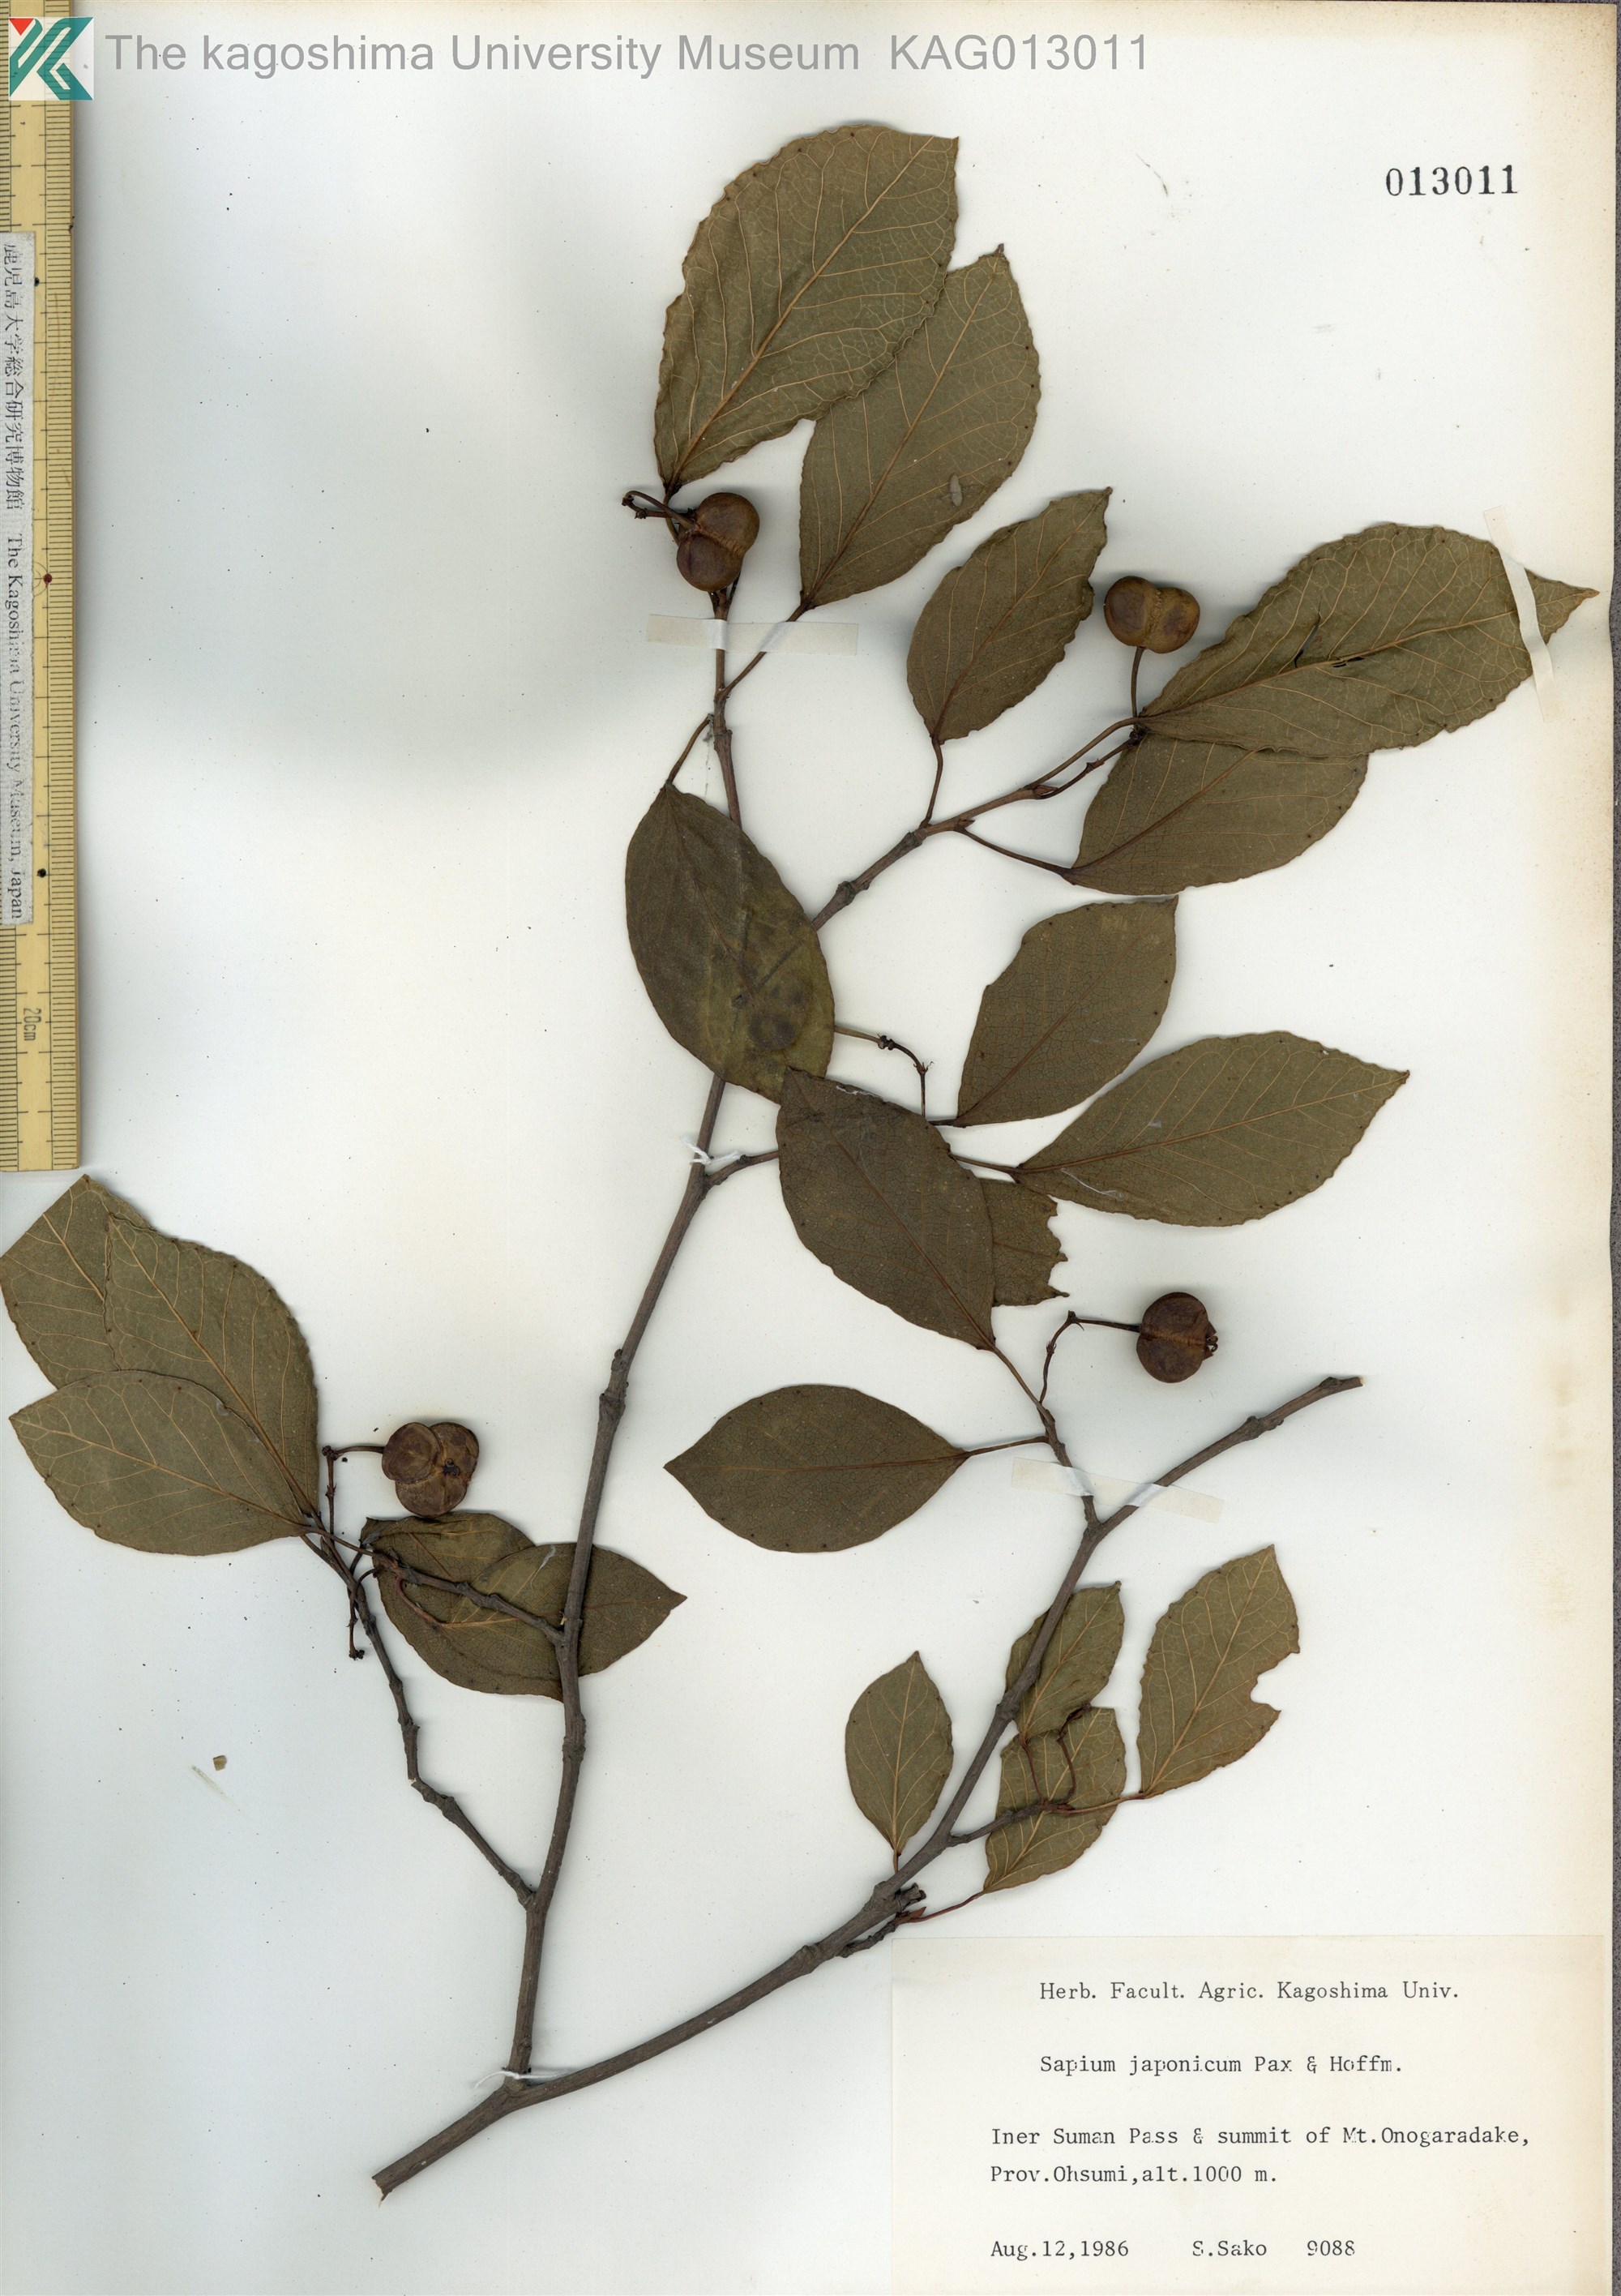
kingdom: Plantae
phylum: Tracheophyta
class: Magnoliopsida
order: Malpighiales
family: Euphorbiaceae
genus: Neoshirakia
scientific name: Neoshirakia japonica
